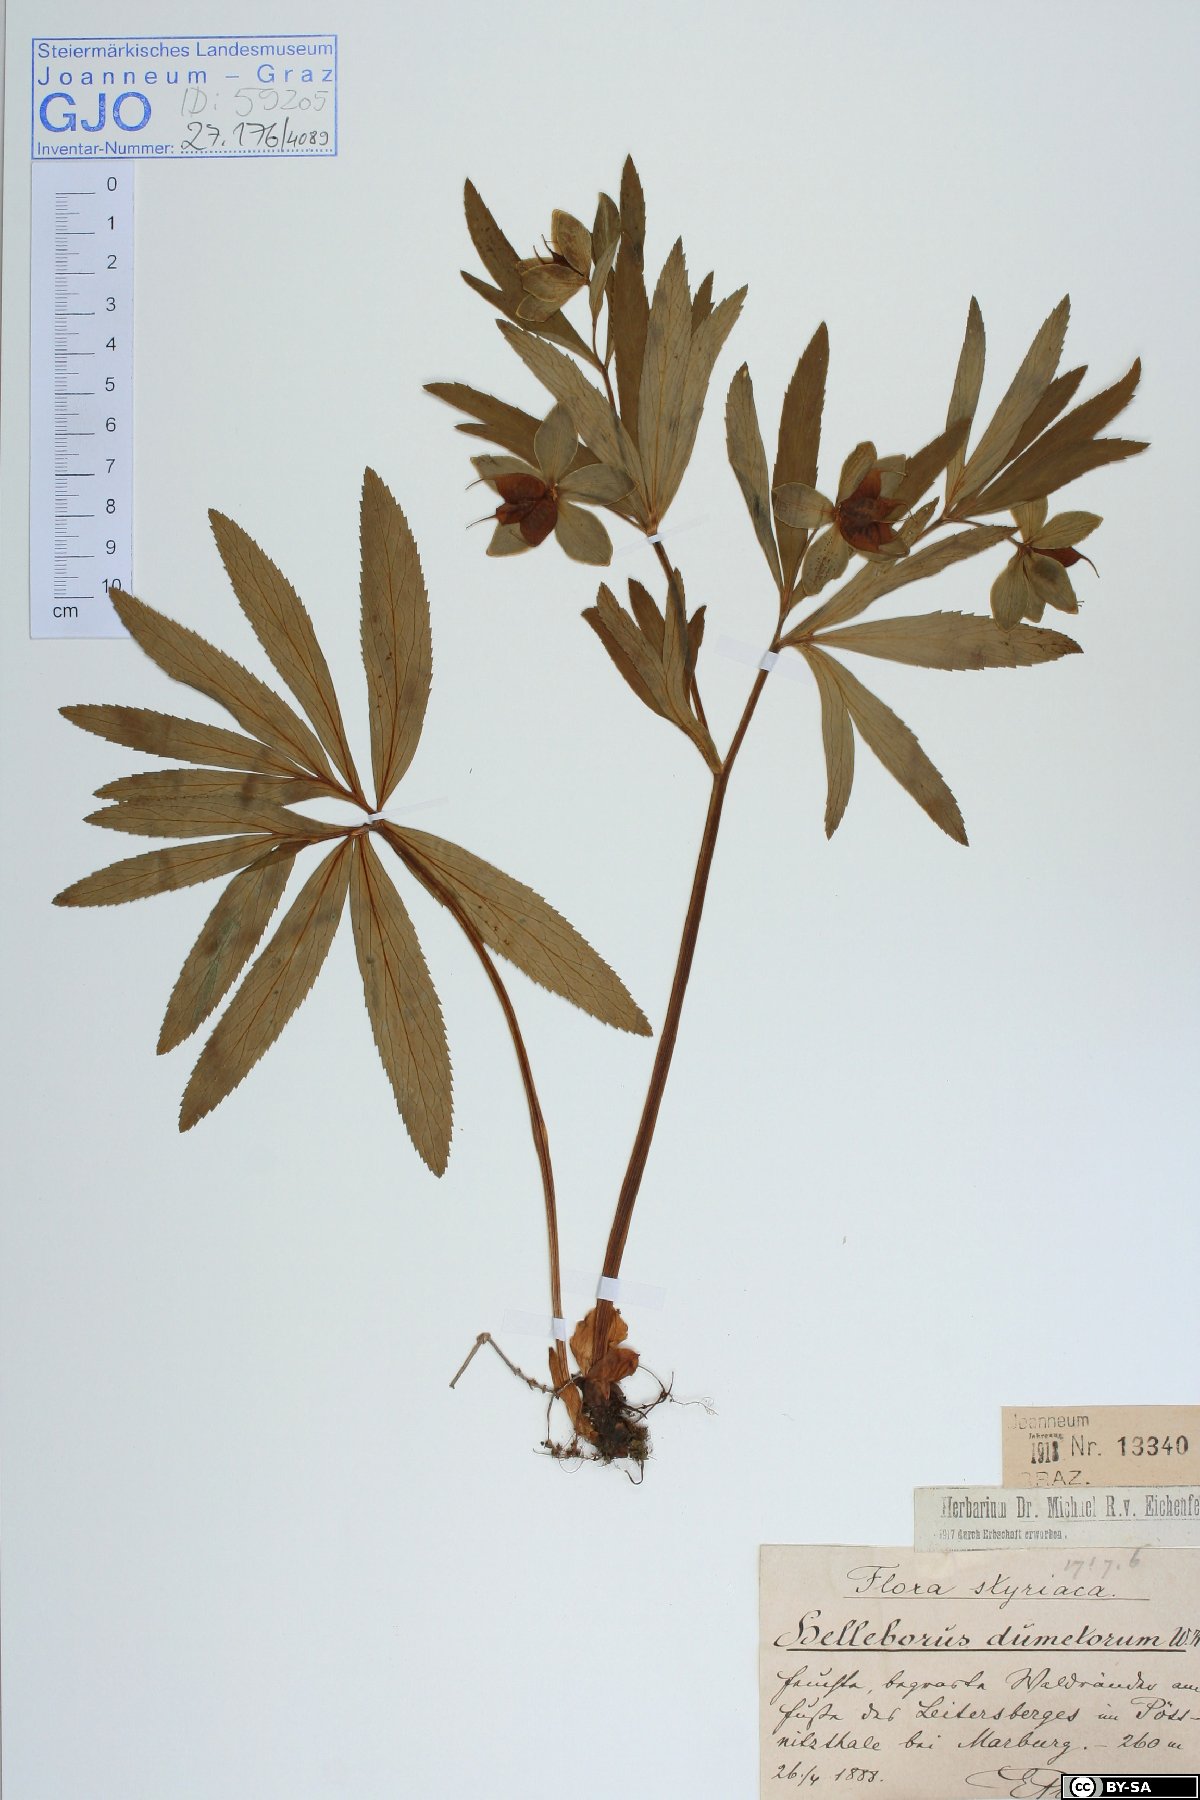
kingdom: Plantae
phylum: Tracheophyta
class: Magnoliopsida
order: Ranunculales
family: Ranunculaceae
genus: Helleborus
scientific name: Helleborus dumetorum
